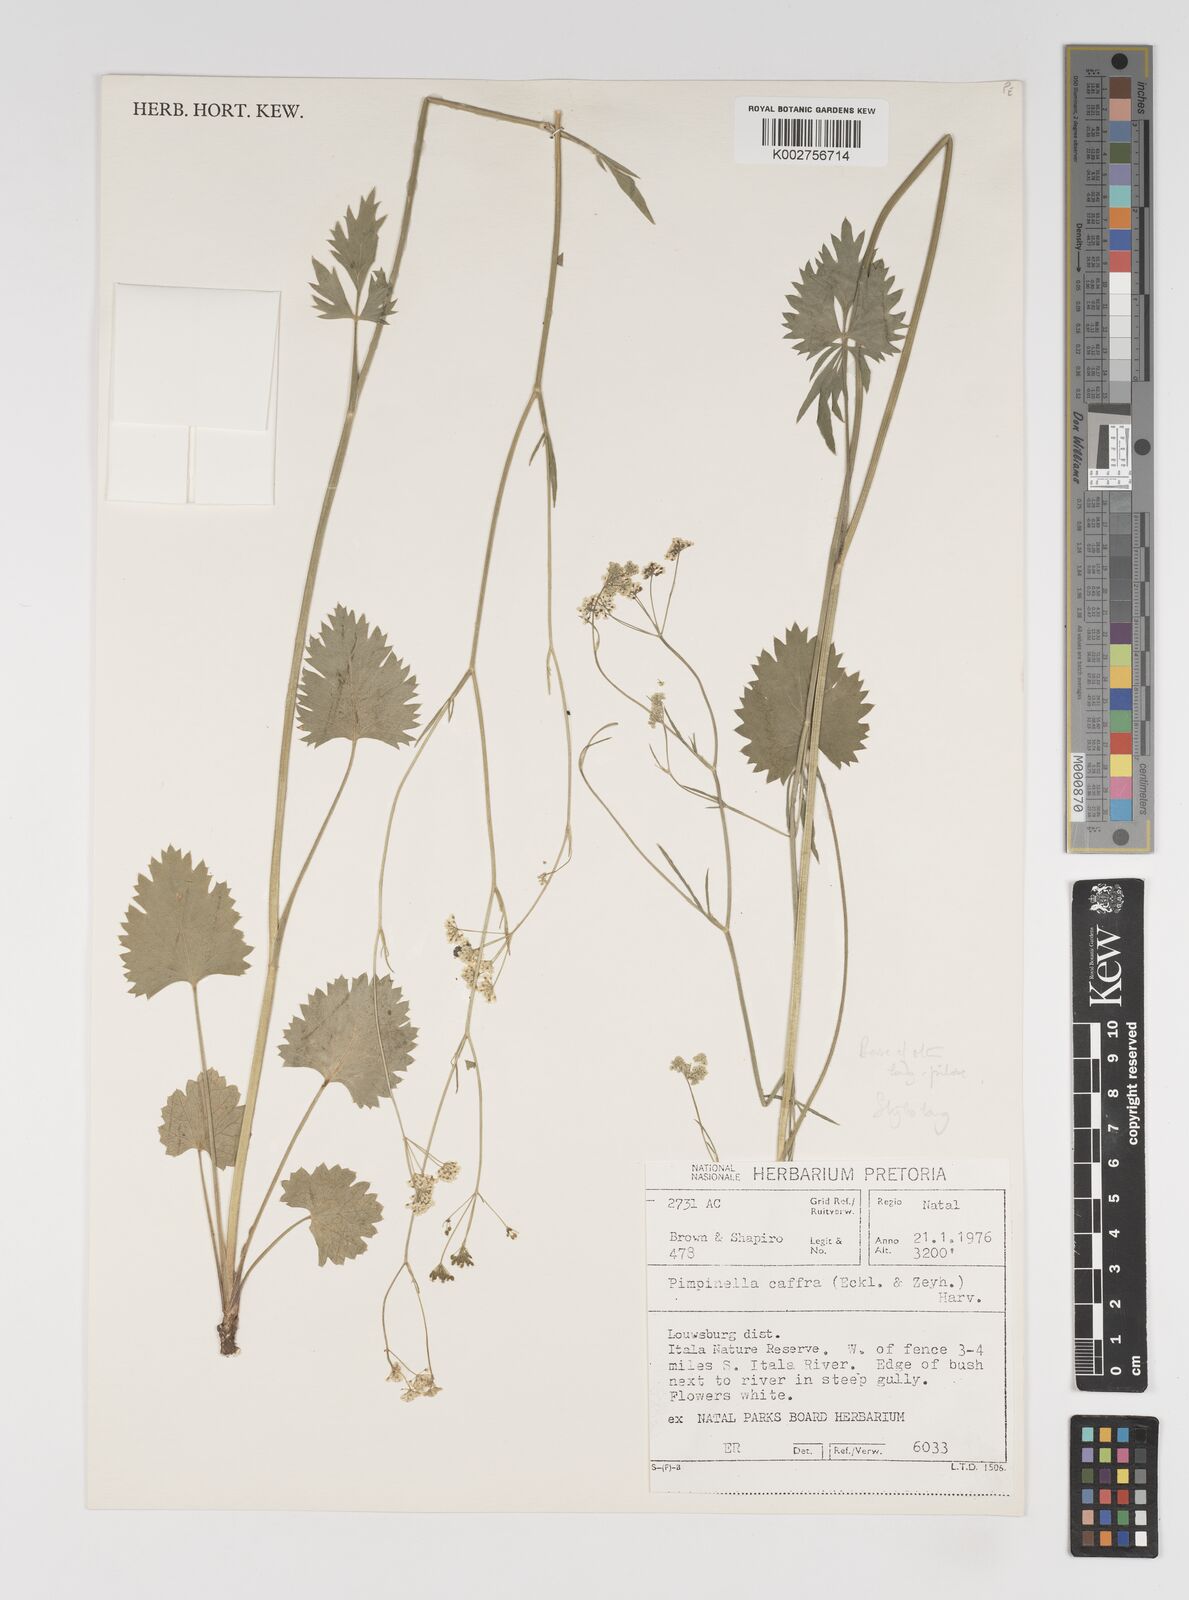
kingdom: Plantae
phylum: Tracheophyta
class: Magnoliopsida
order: Apiales
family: Apiaceae
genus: Pimpinella
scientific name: Pimpinella
